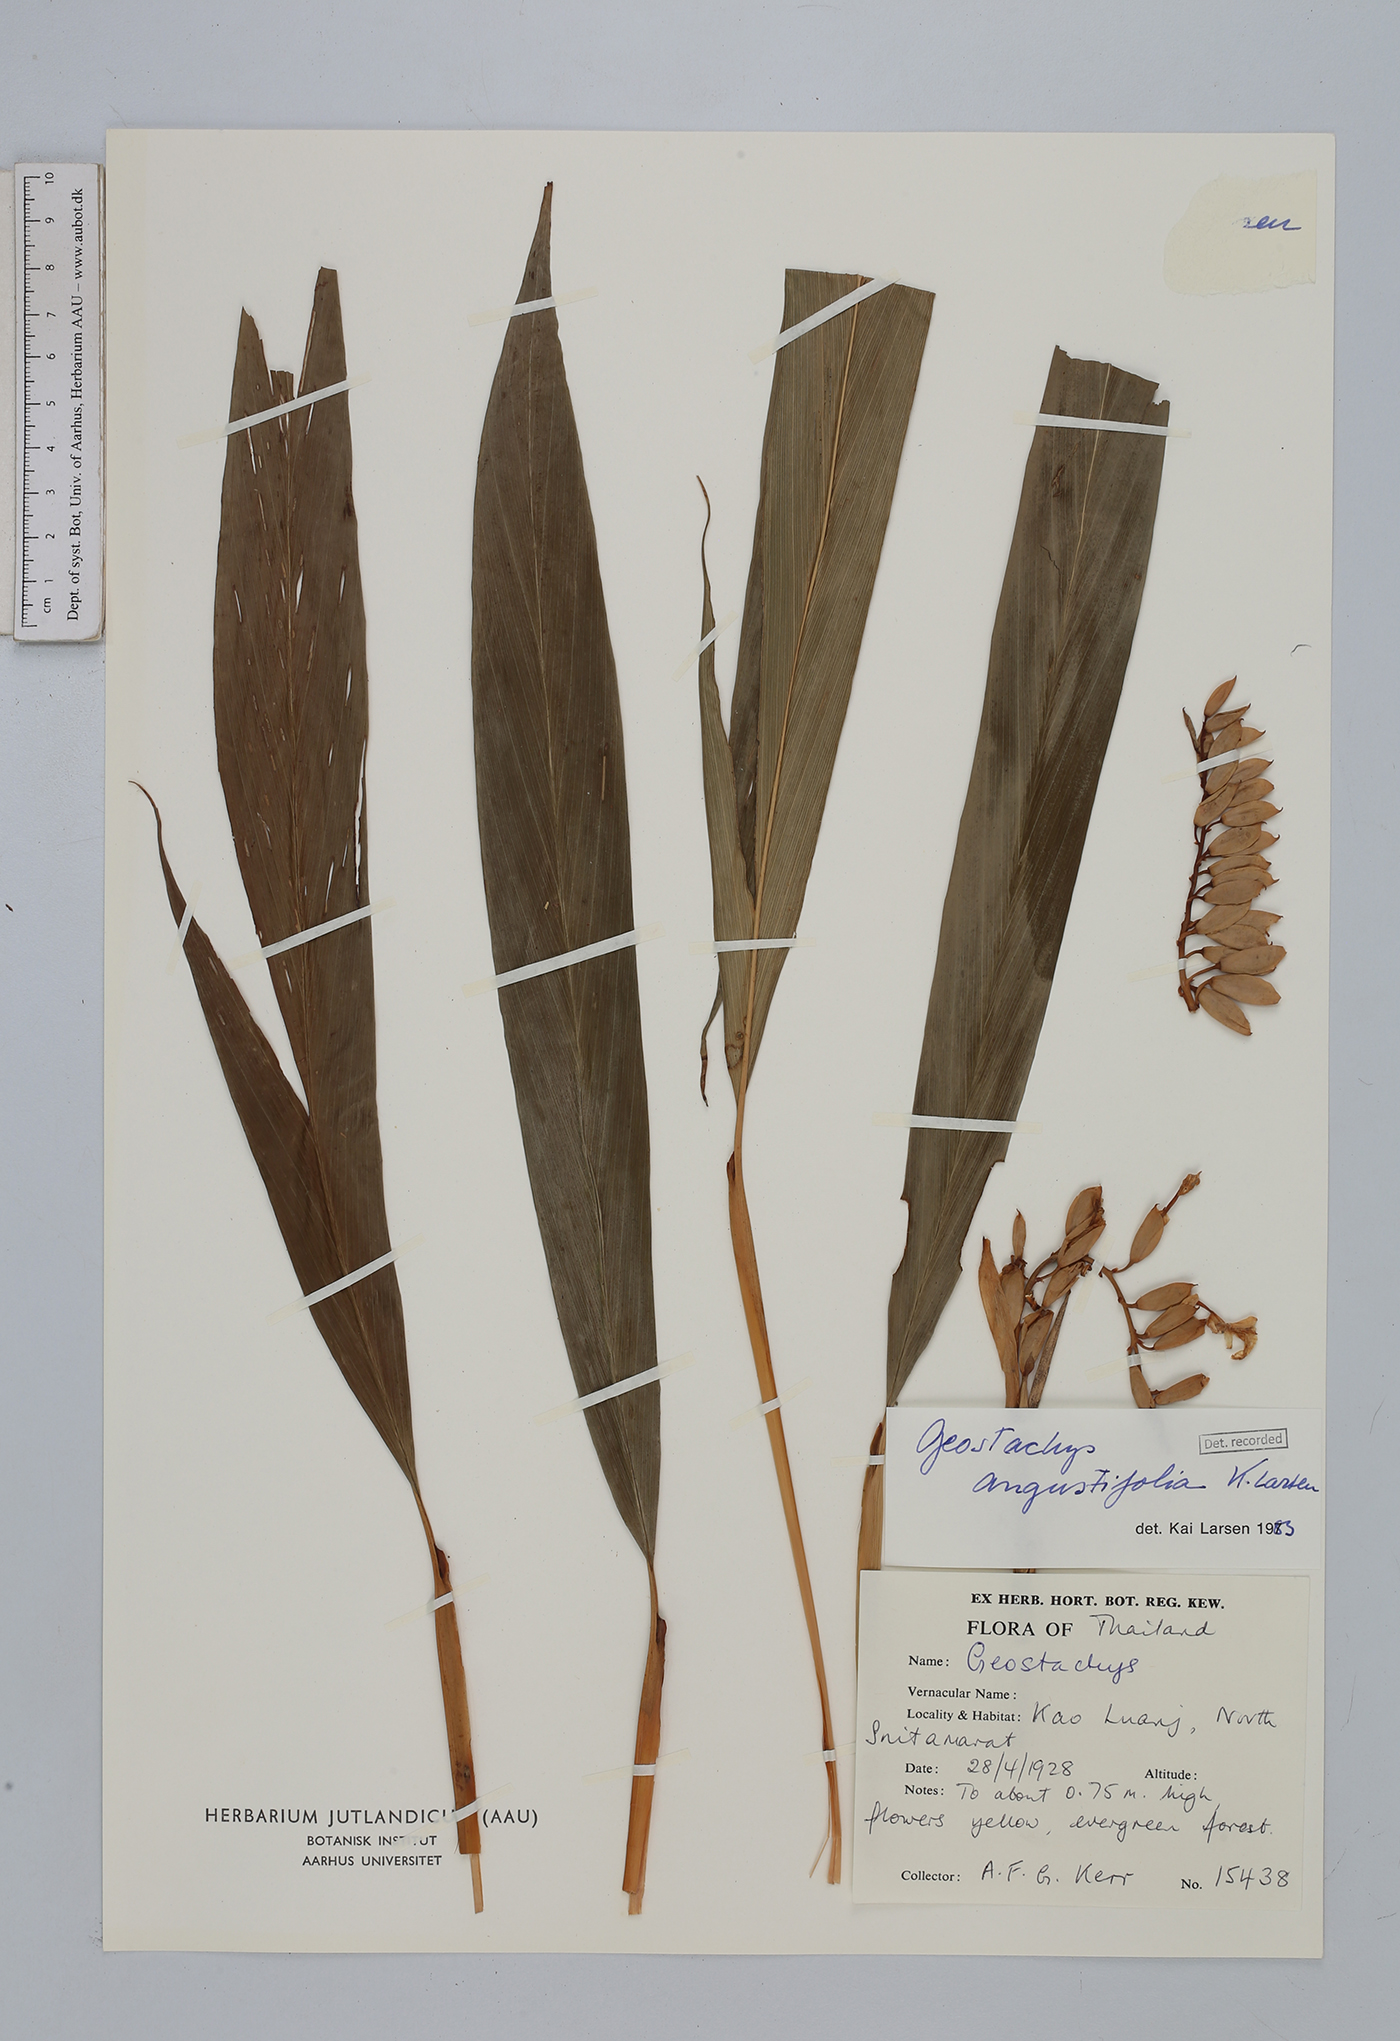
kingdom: Plantae
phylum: Tracheophyta
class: Liliopsida
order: Zingiberales
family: Zingiberaceae
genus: Geostachys
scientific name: Geostachys angustifolia
